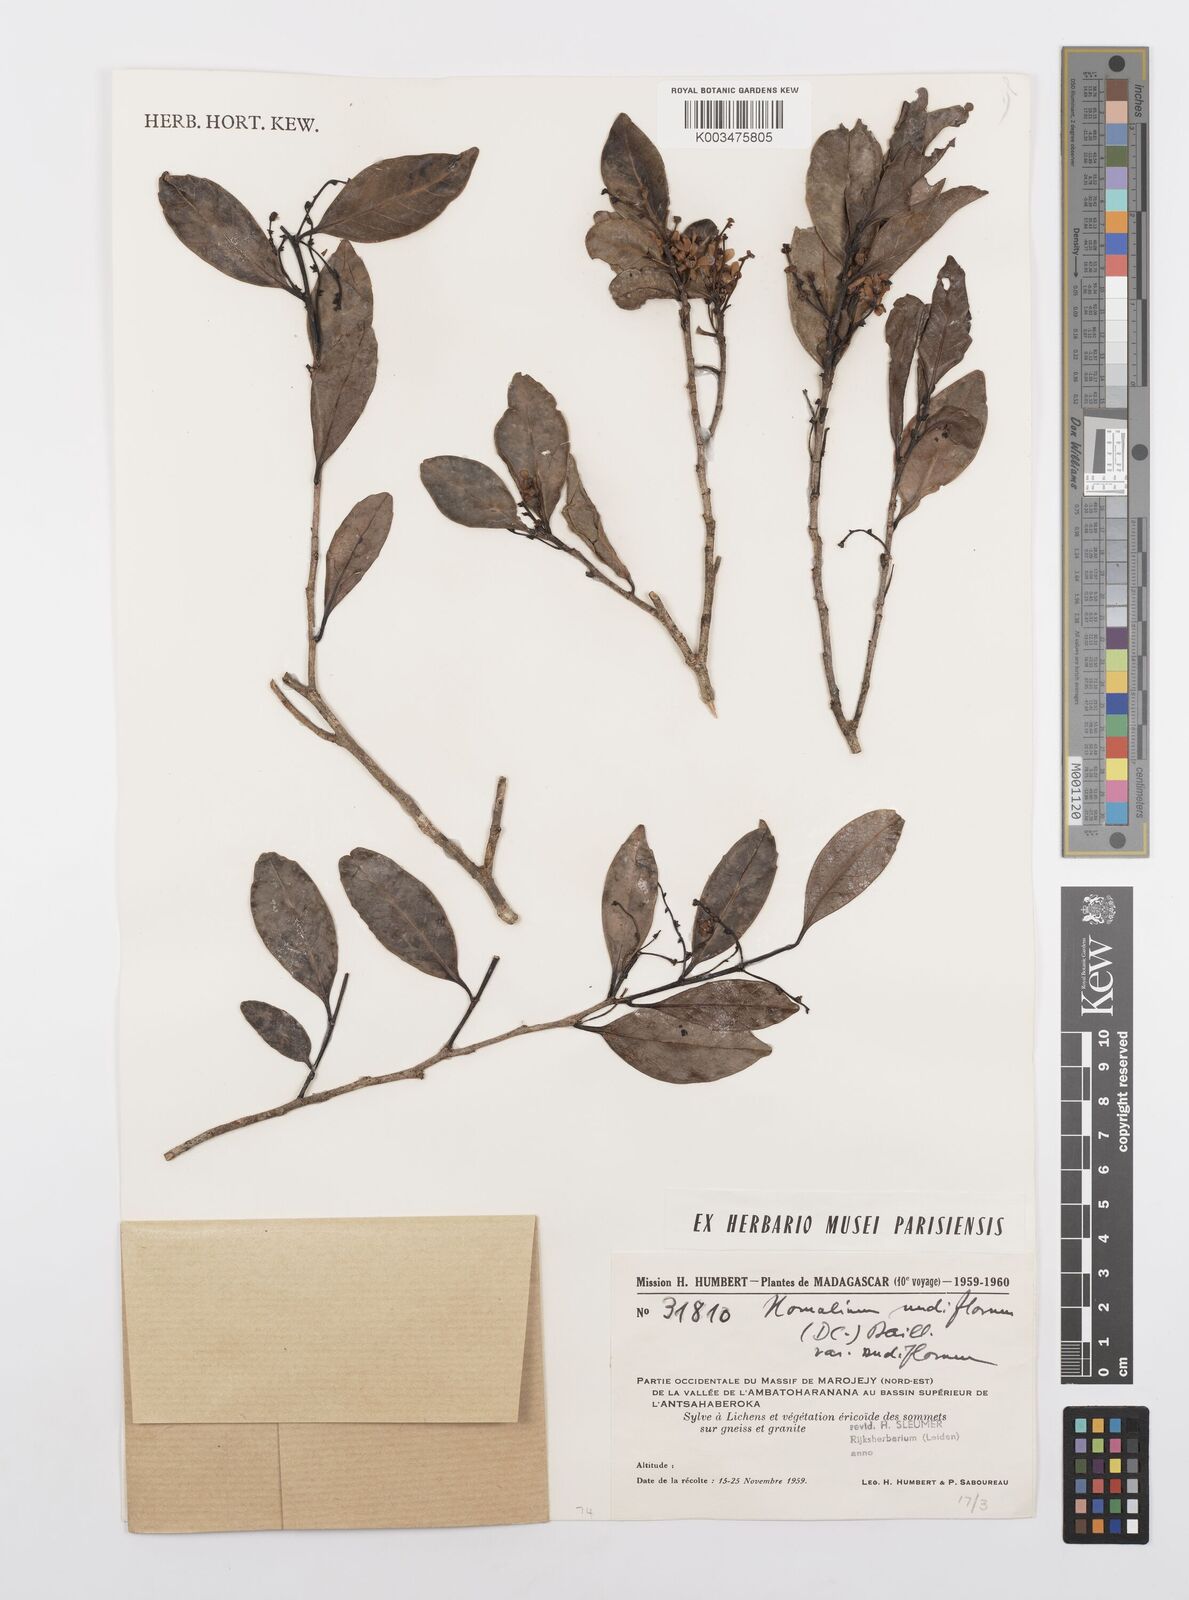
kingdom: Plantae
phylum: Tracheophyta
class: Magnoliopsida
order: Malpighiales
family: Salicaceae
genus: Homalium
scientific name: Homalium nudiflorum
